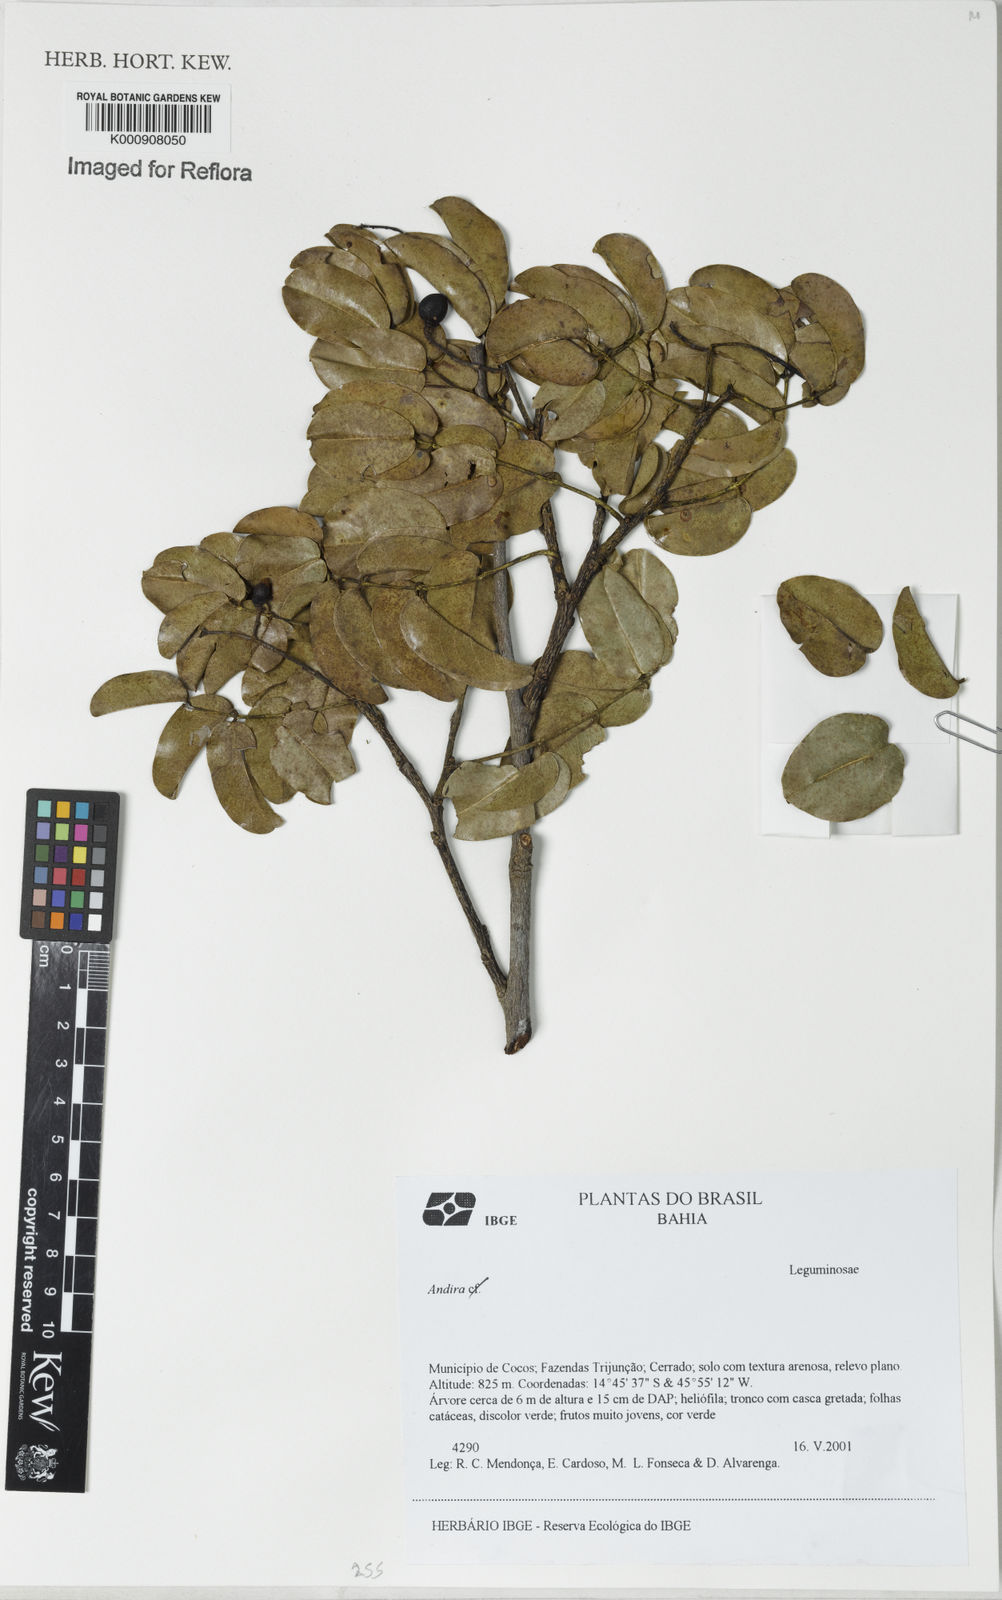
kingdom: Plantae
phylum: Tracheophyta
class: Magnoliopsida
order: Fabales
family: Fabaceae
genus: Andira
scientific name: Andira
